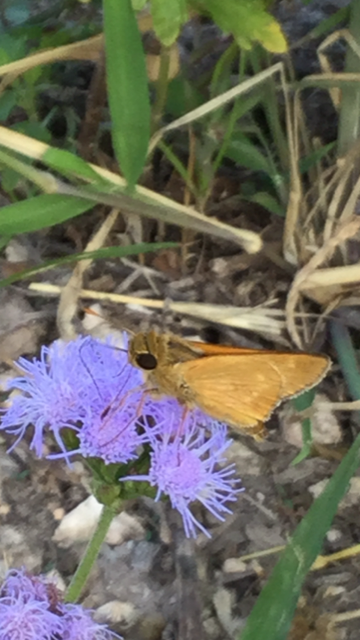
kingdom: Animalia
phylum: Arthropoda
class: Insecta
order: Lepidoptera
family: Hesperiidae
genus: Mellana
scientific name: Mellana eulogius
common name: Common Mellana
